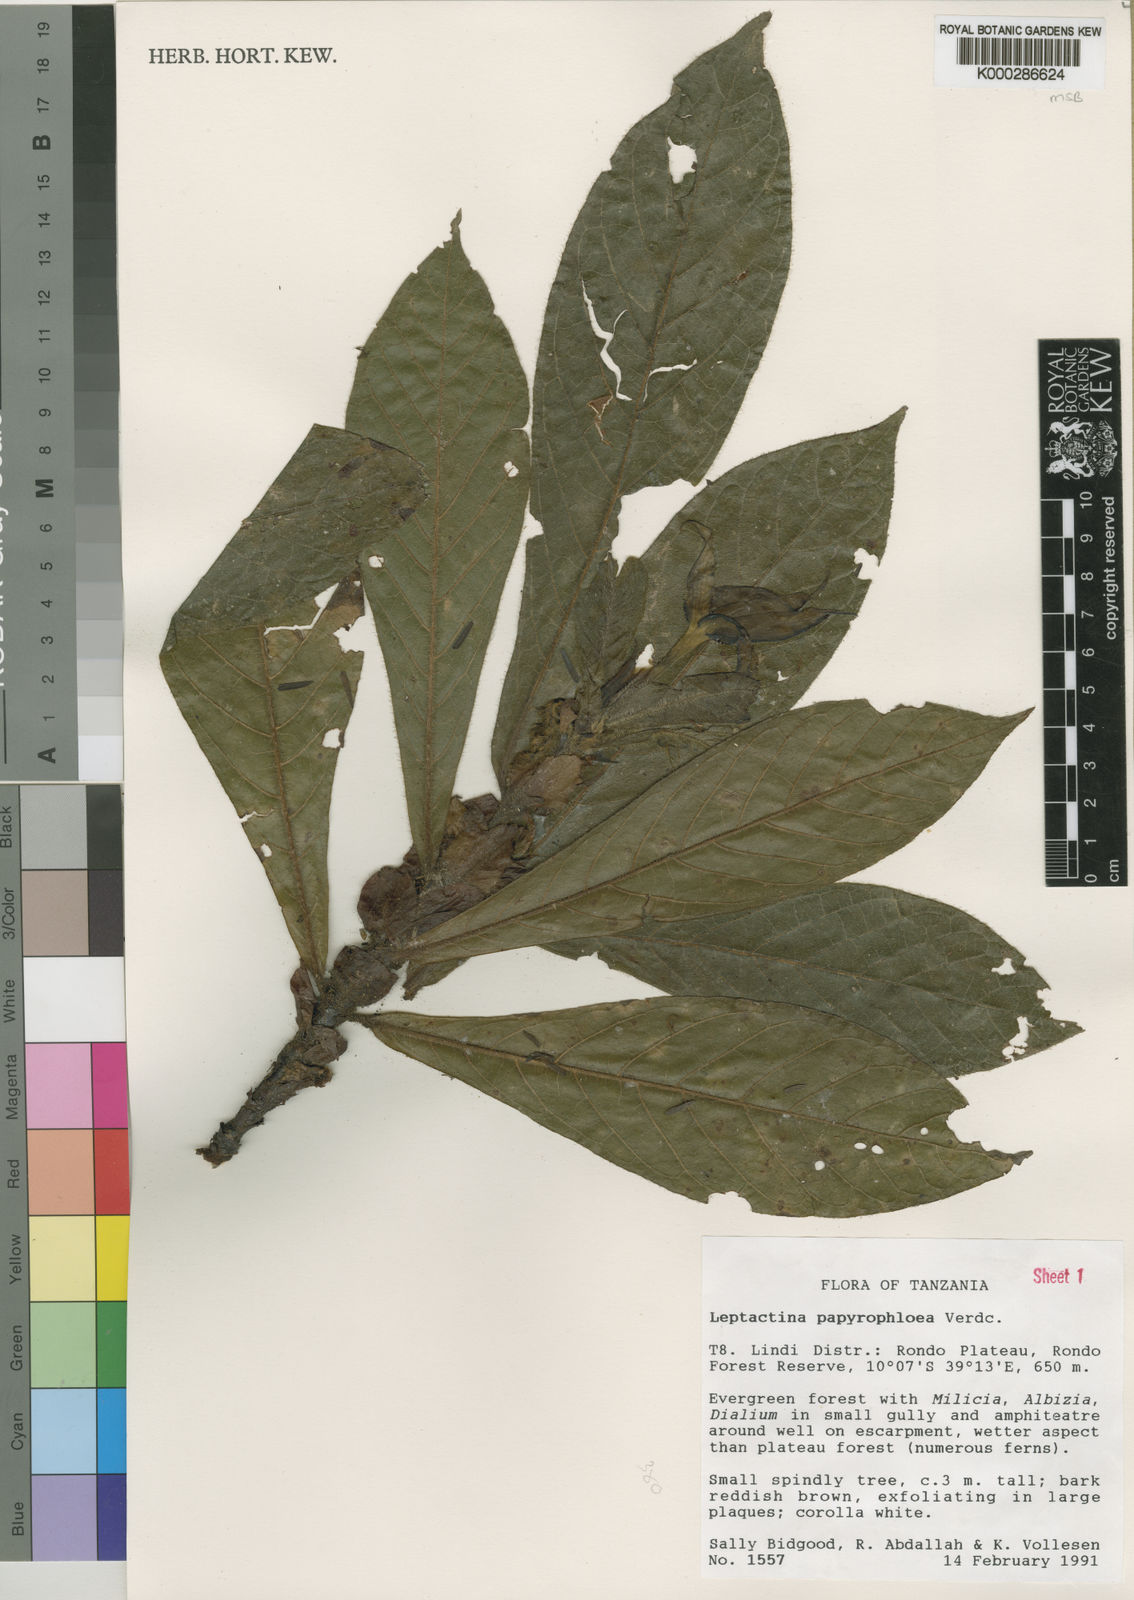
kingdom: Plantae
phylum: Tracheophyta
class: Magnoliopsida
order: Gentianales
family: Rubiaceae
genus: Leptactina
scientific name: Leptactina papyrophloea
